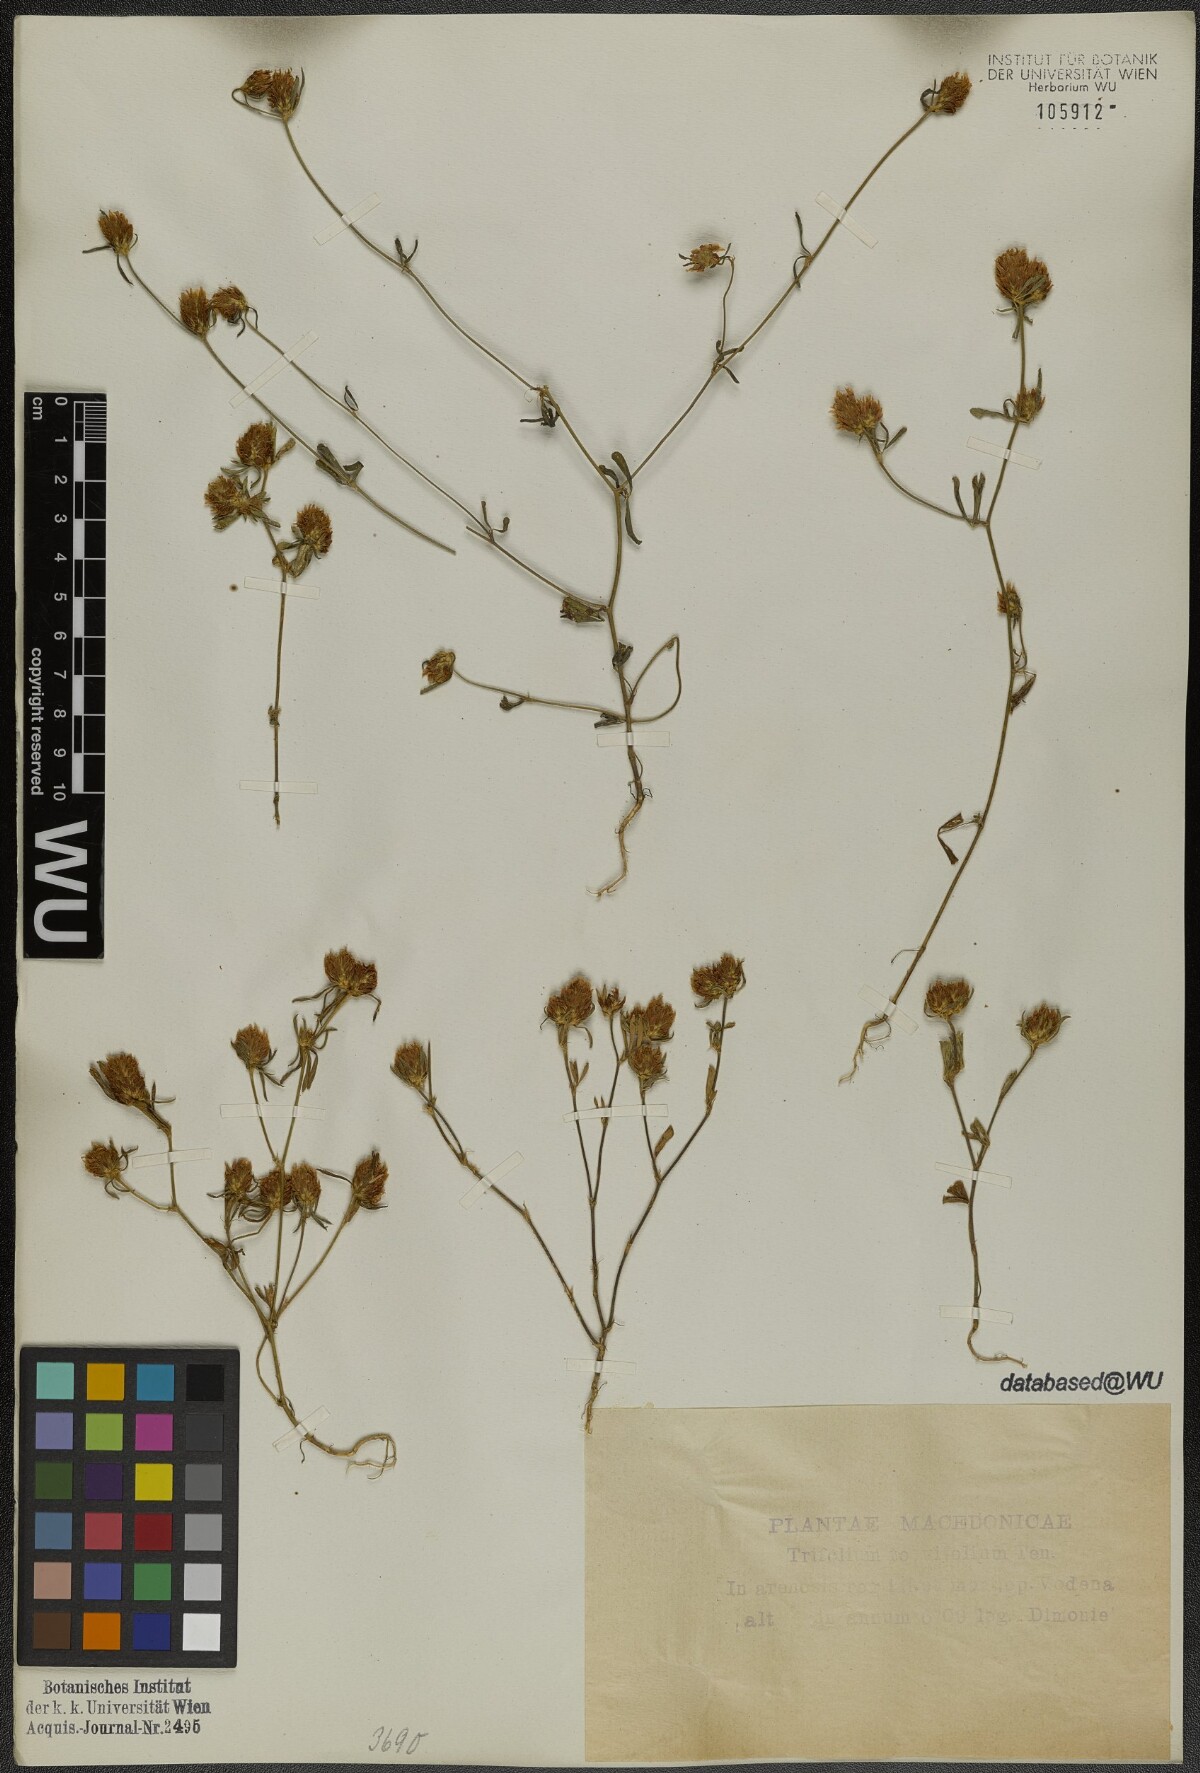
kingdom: Plantae
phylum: Tracheophyta
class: Magnoliopsida
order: Fabales
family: Fabaceae
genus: Trifolium
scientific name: Trifolium tenuifolium
